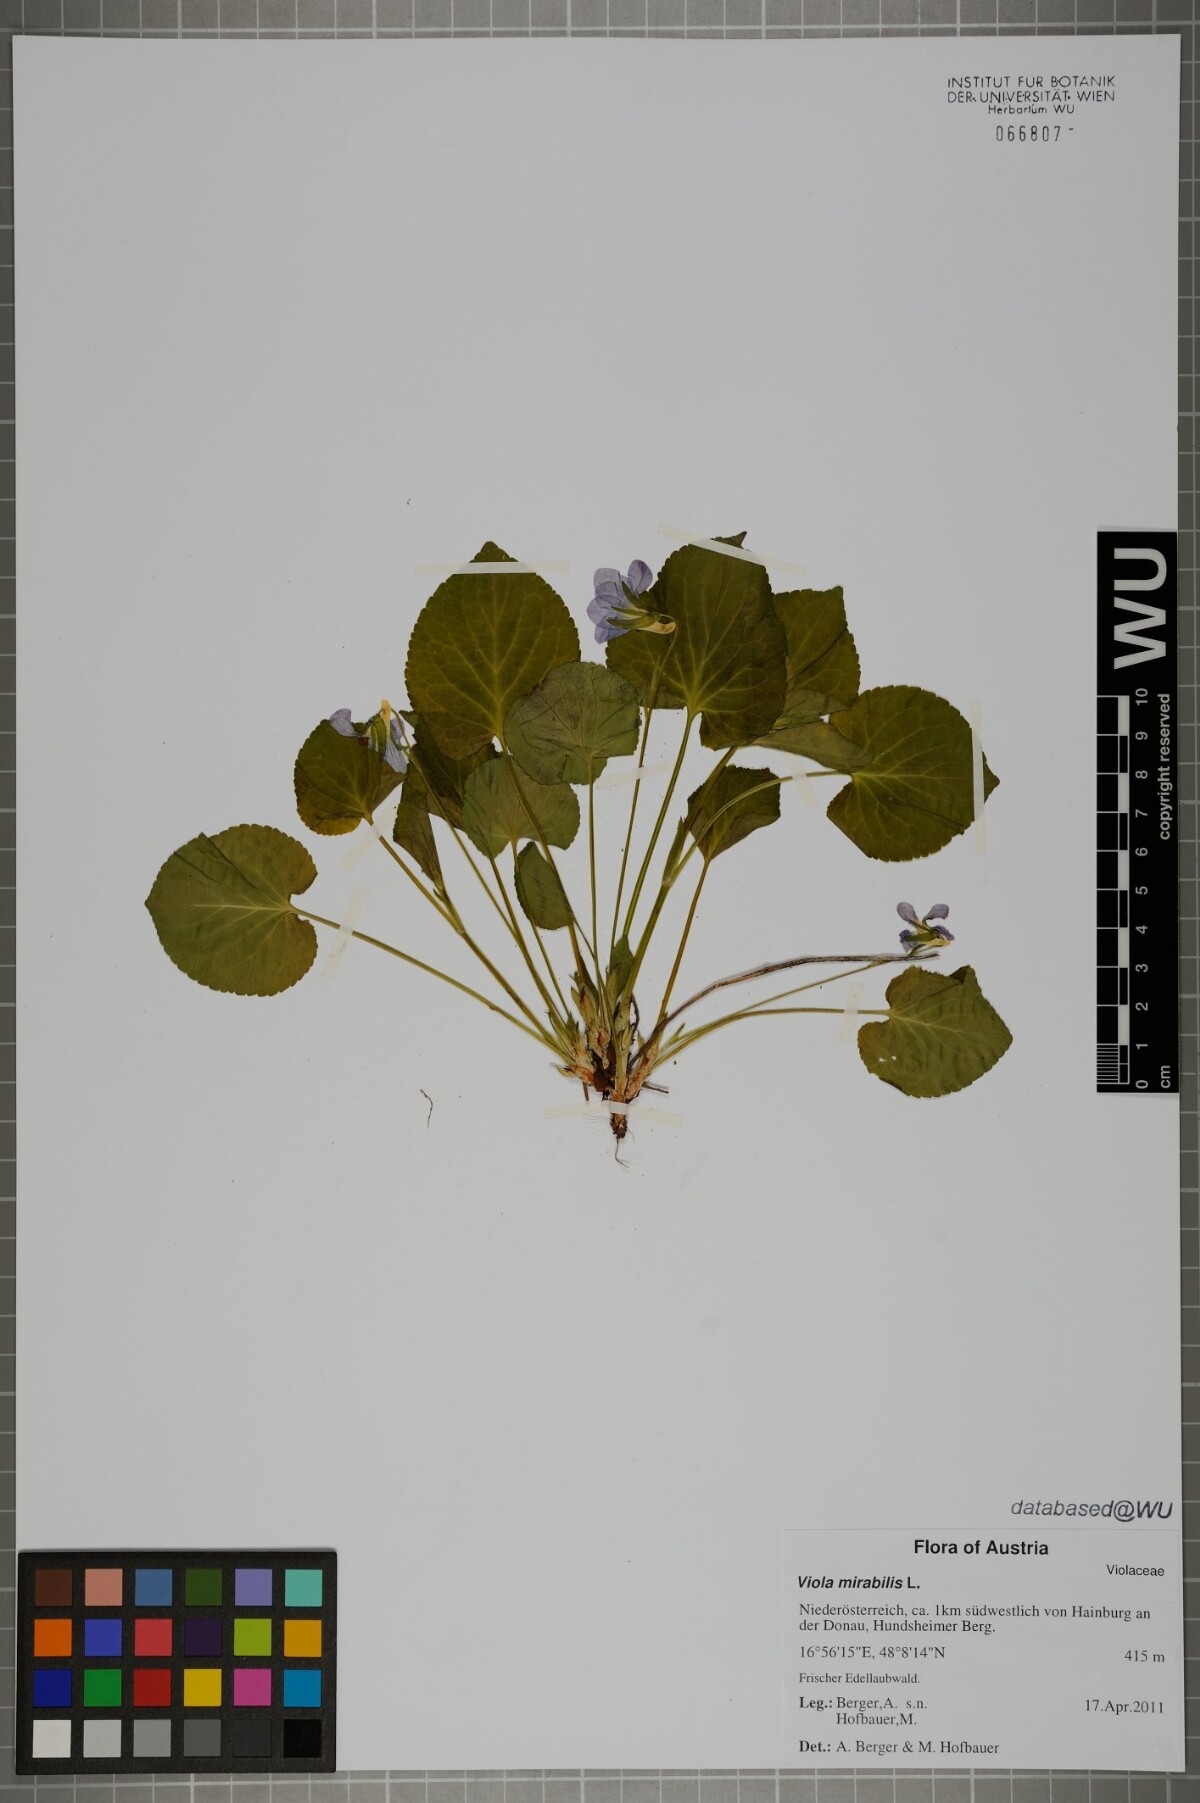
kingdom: Plantae
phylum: Tracheophyta
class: Magnoliopsida
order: Malpighiales
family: Violaceae
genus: Viola
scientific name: Viola mirabilis
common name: Wonder violet
